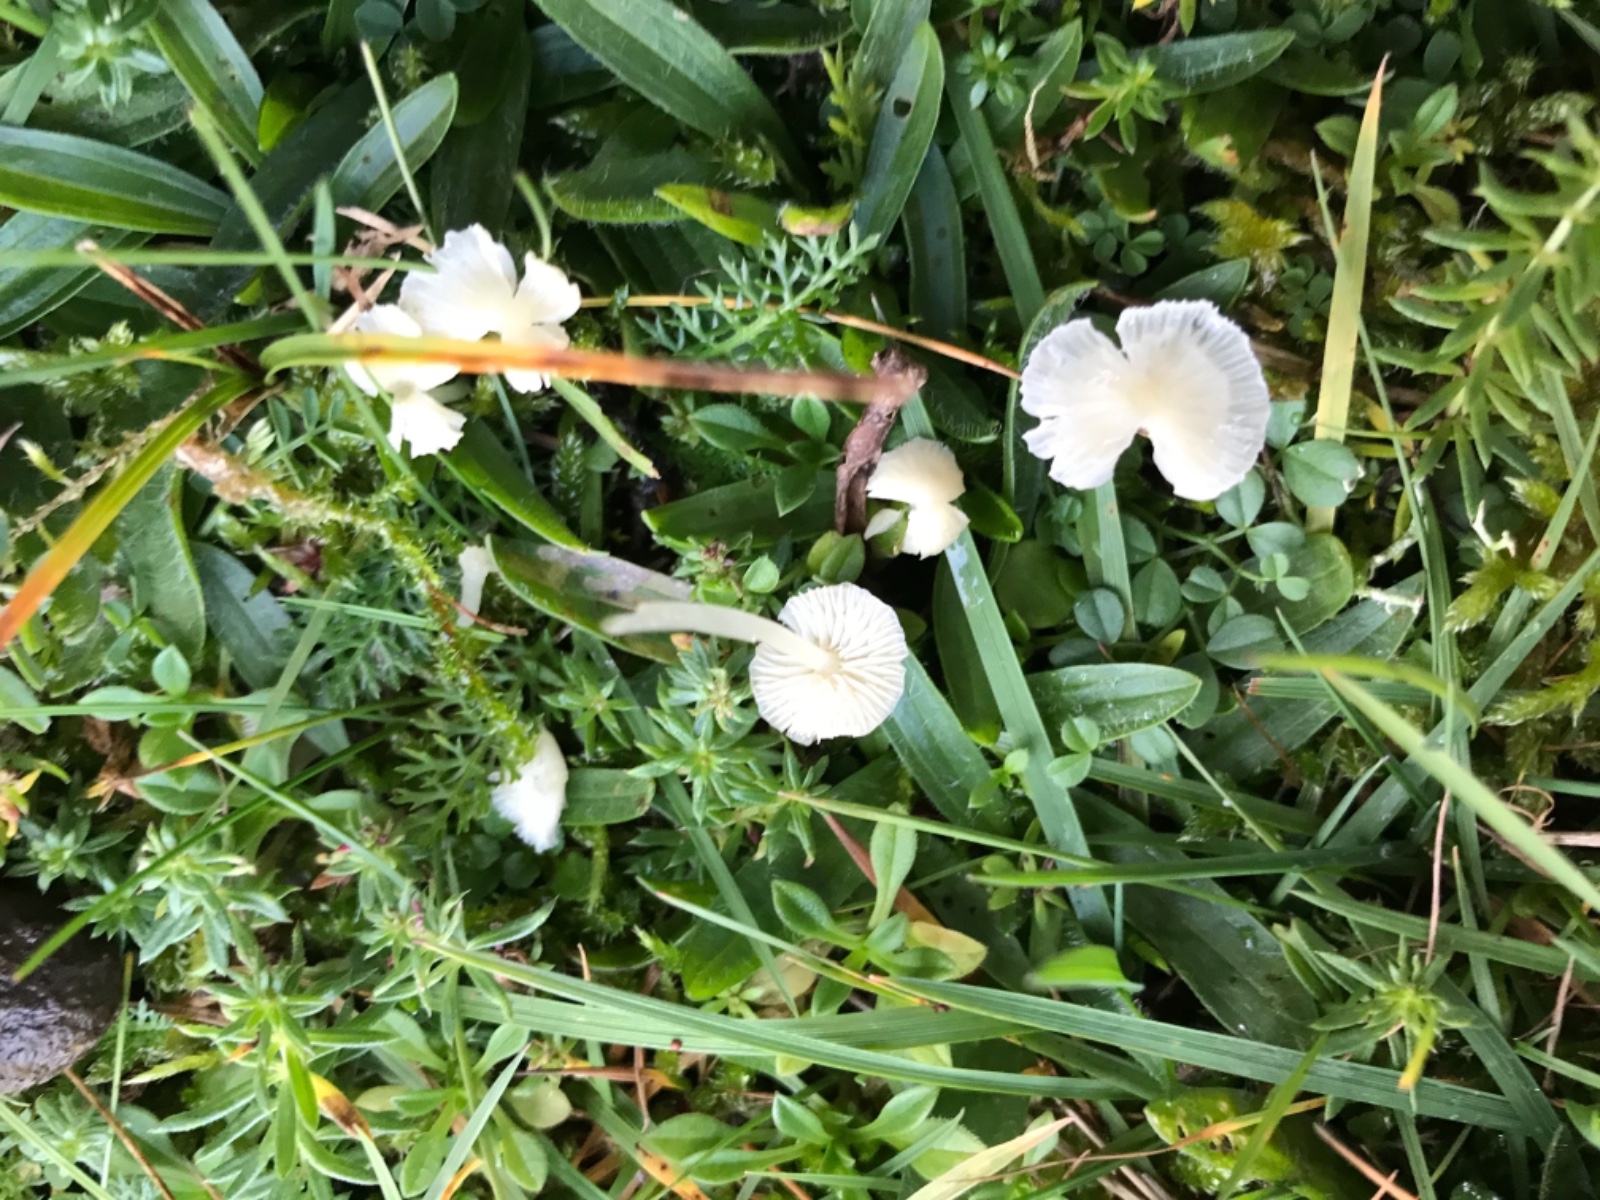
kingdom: Fungi
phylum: Basidiomycota
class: Agaricomycetes
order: Agaricales
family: Mycenaceae
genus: Atheniella
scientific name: Atheniella flavoalba
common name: gulhvid huesvamp
